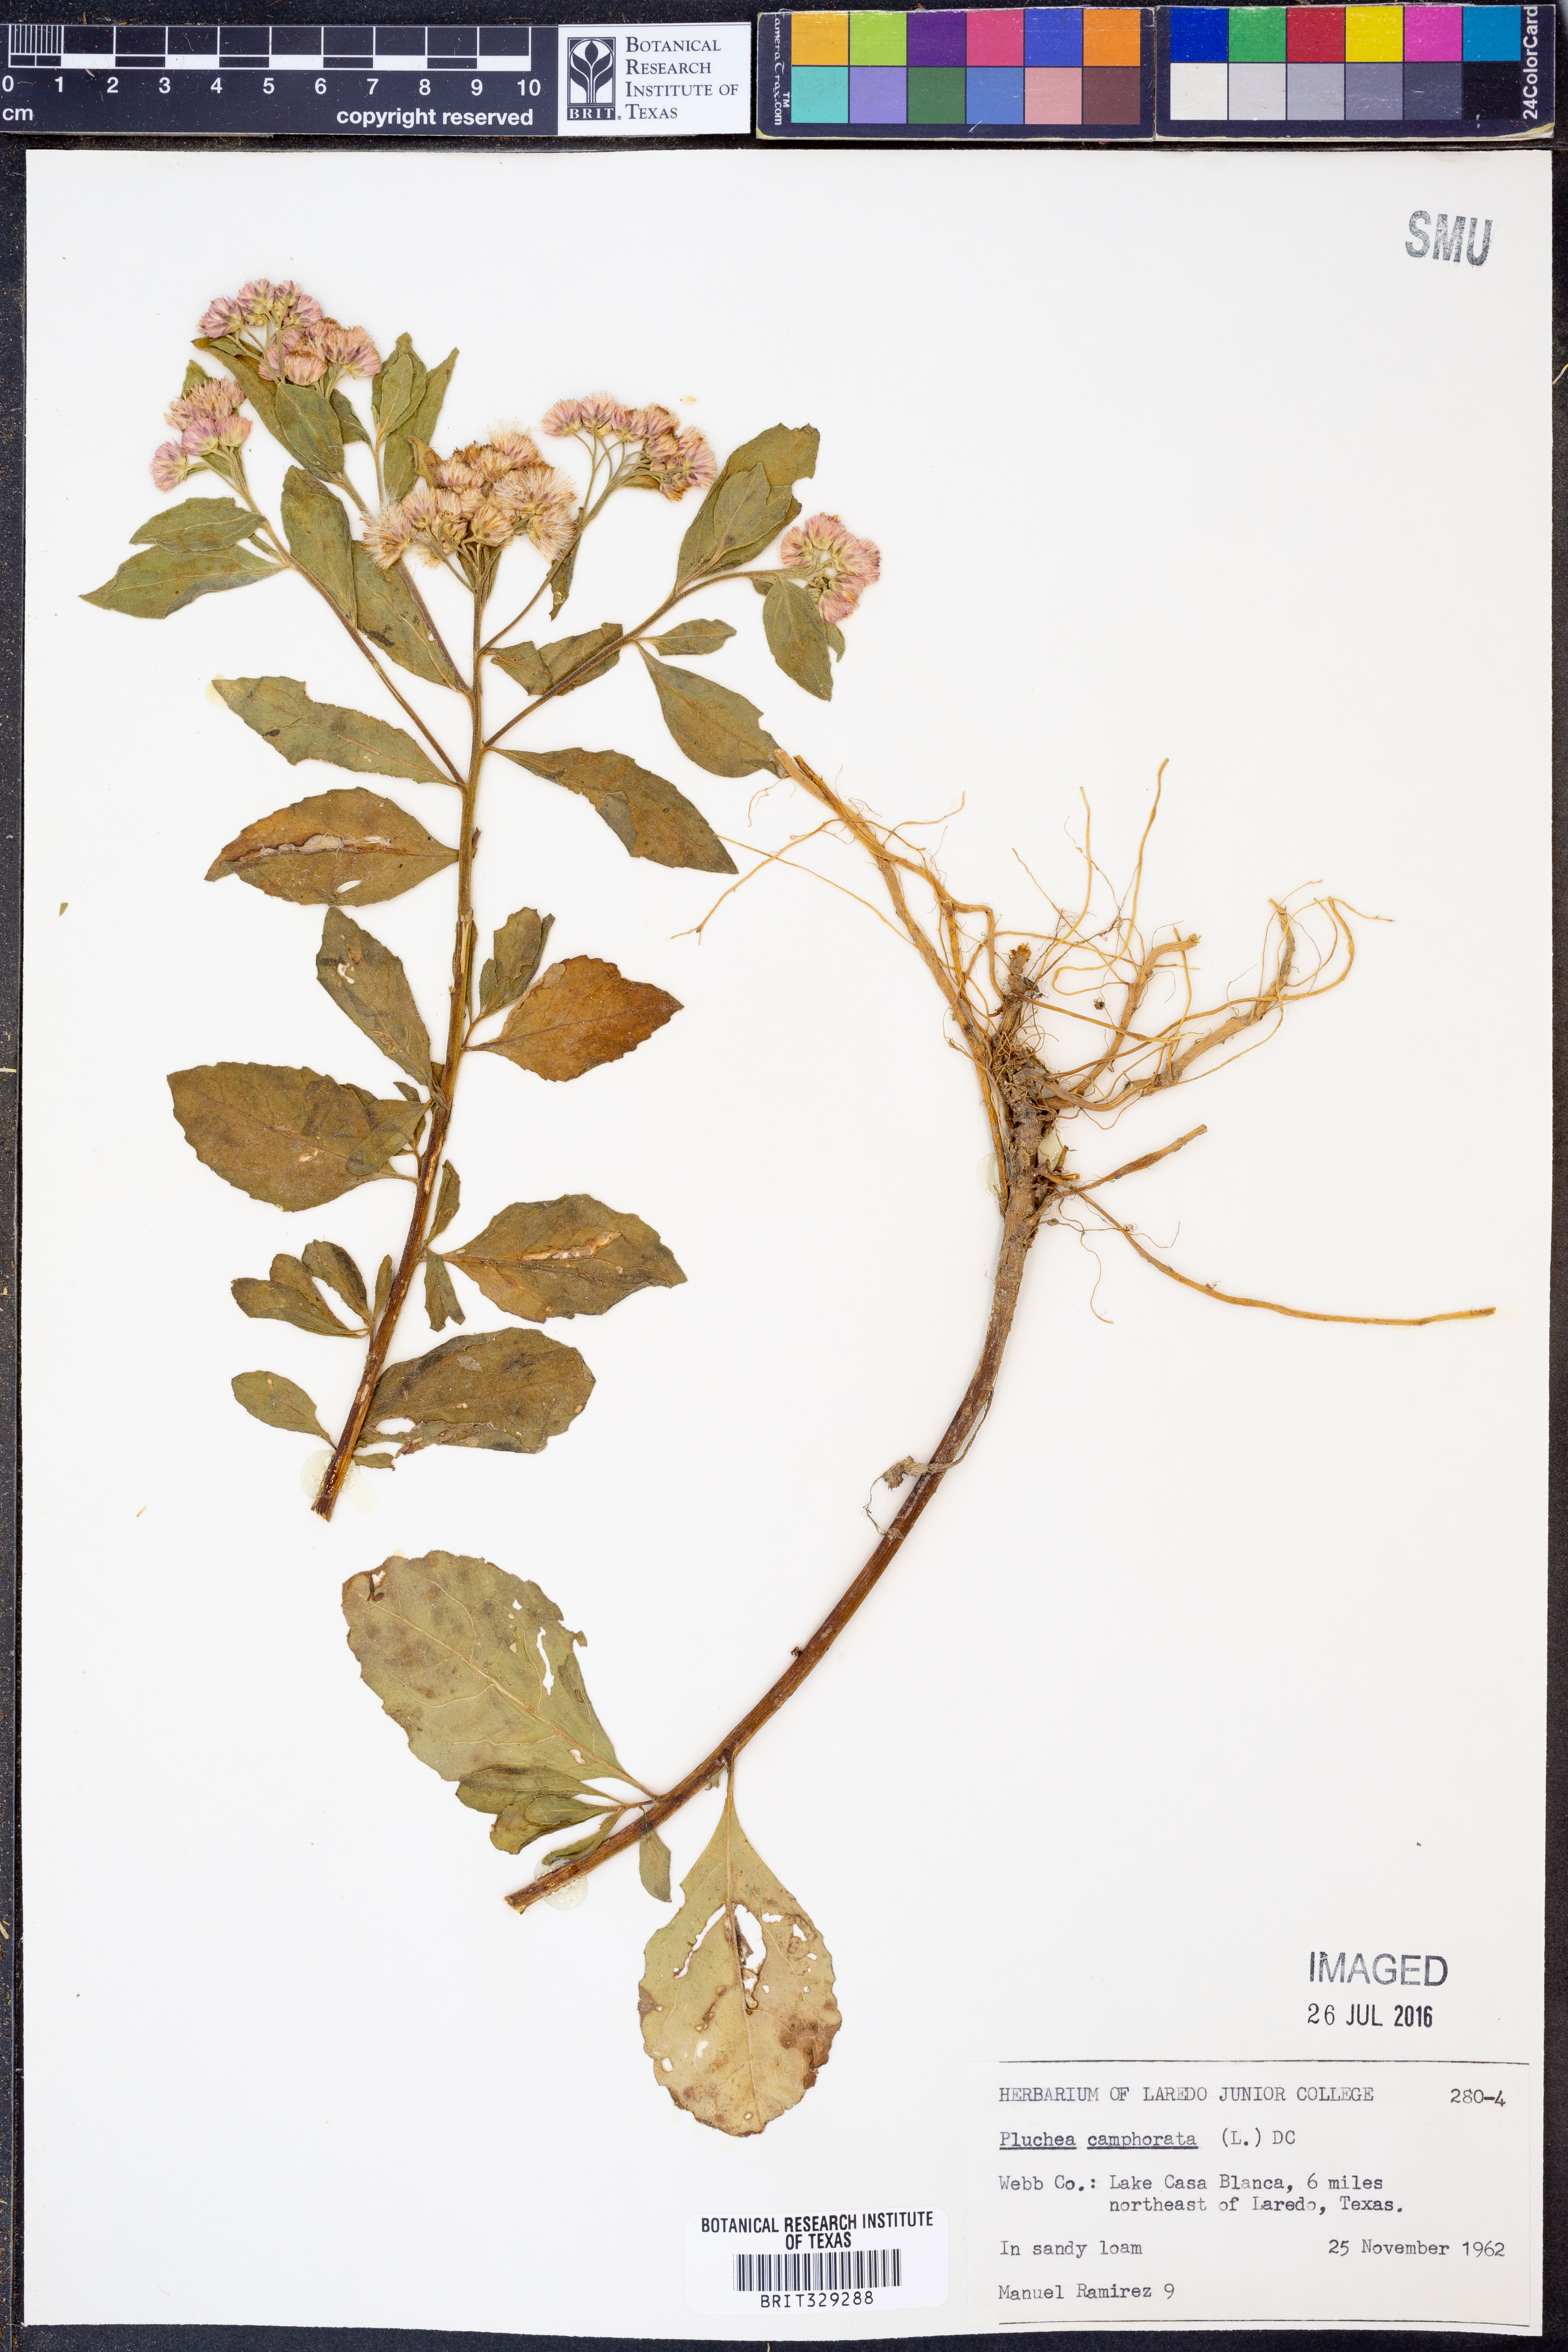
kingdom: Plantae
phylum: Tracheophyta
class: Magnoliopsida
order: Asterales
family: Asteraceae
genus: Pluchea
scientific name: Pluchea camphorata
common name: Camphor pluchea
